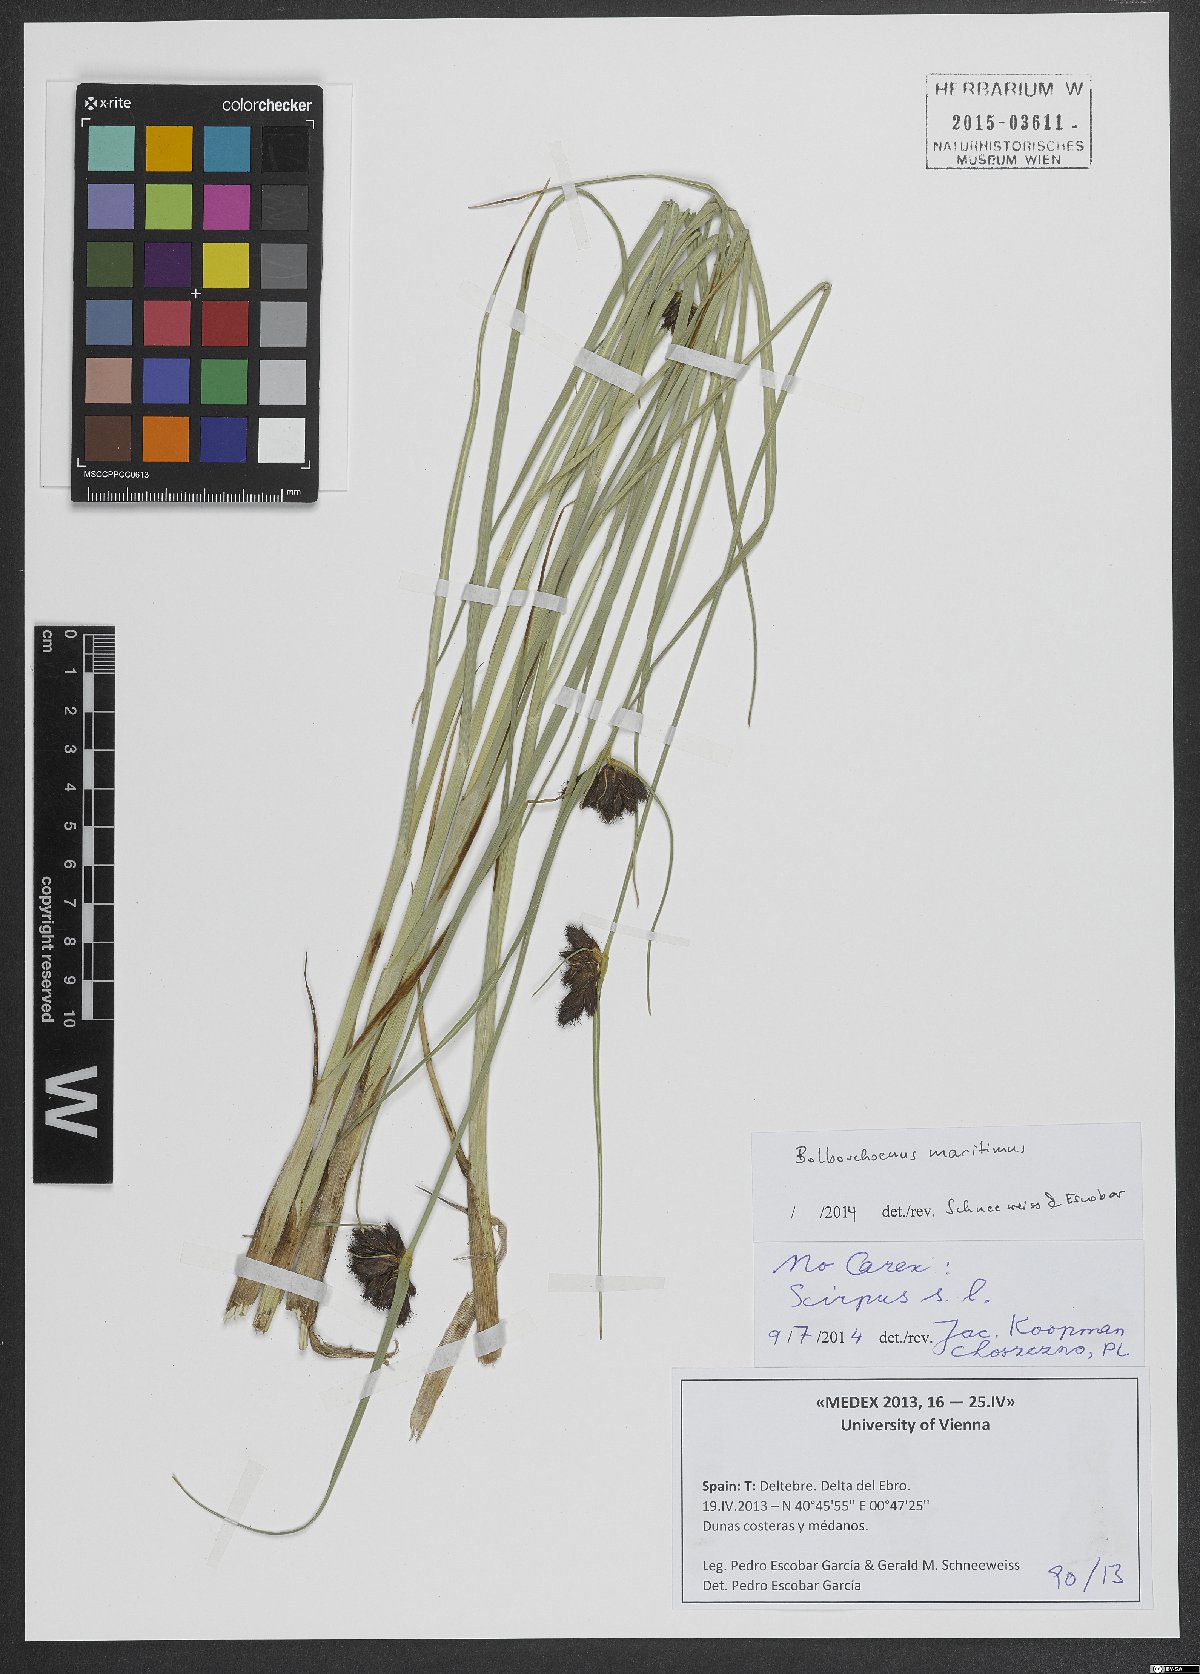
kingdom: Plantae
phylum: Tracheophyta
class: Liliopsida
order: Poales
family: Cyperaceae
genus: Bolboschoenus
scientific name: Bolboschoenus maritimus
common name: Sea club-rush
